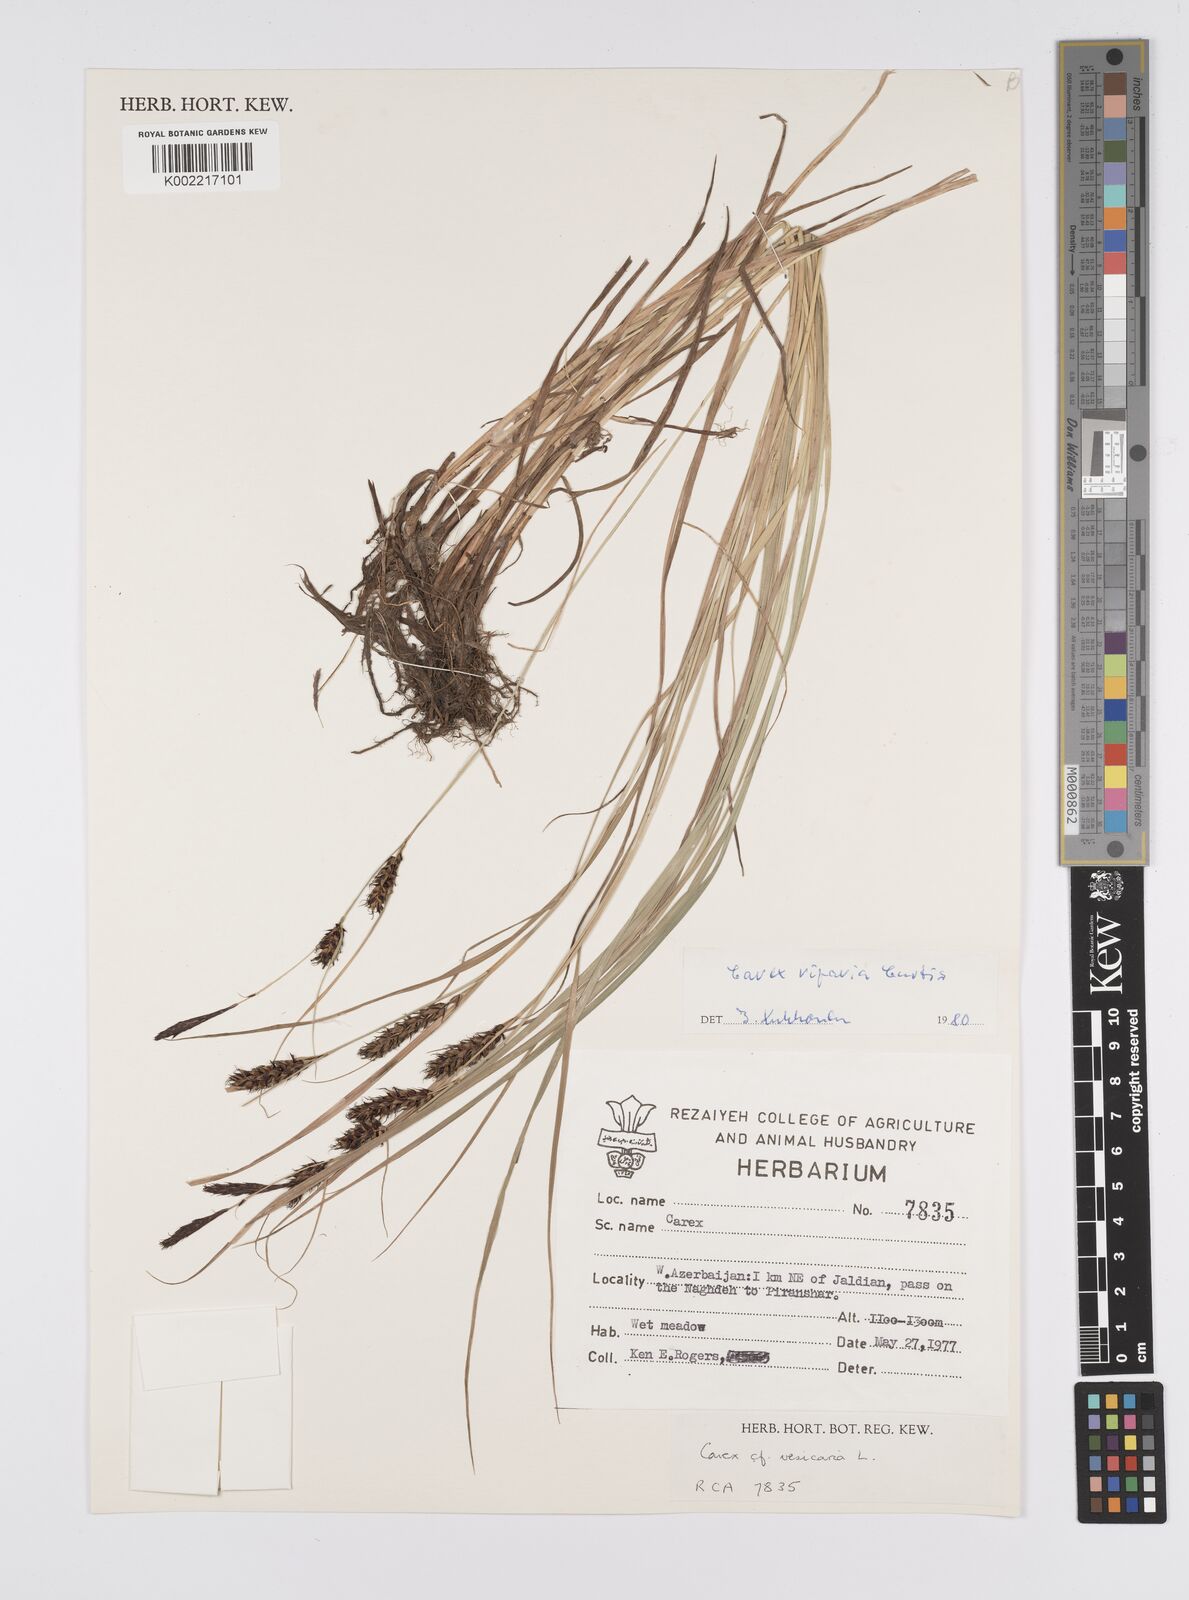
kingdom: Plantae
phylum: Tracheophyta
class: Liliopsida
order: Poales
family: Cyperaceae
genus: Carex
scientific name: Carex riparia
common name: Greater pond-sedge
